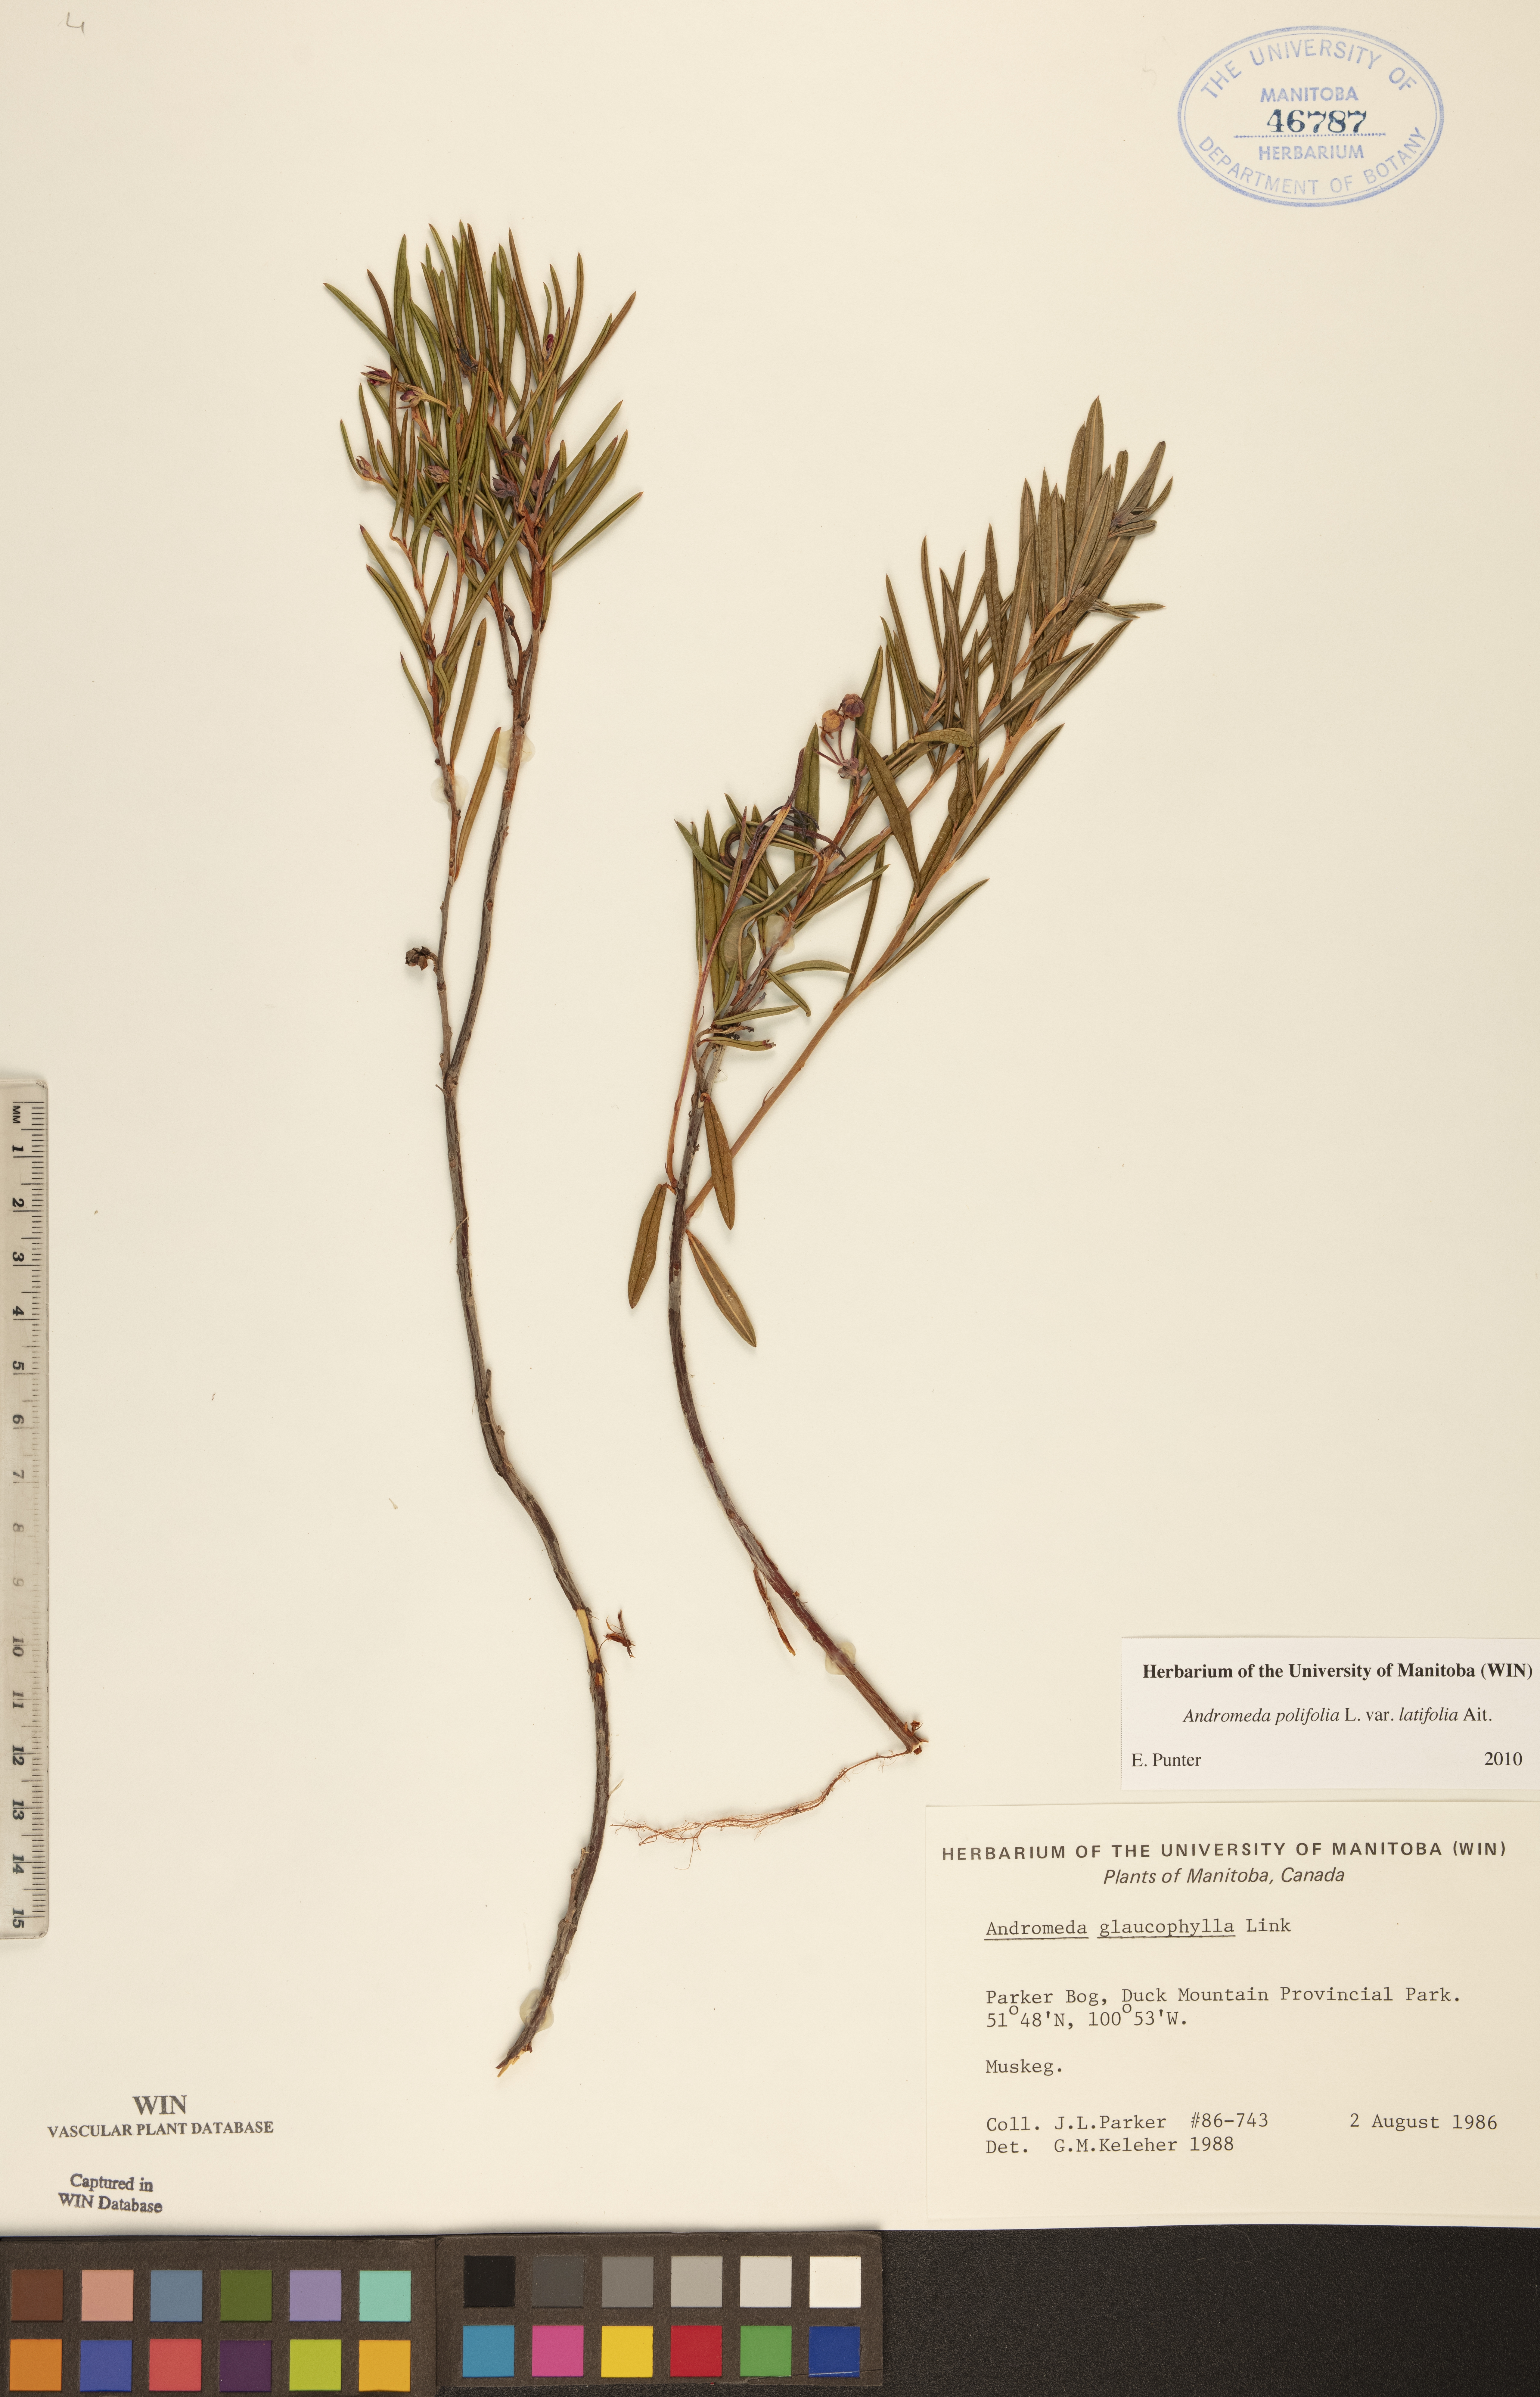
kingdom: Plantae
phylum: Tracheophyta
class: Magnoliopsida
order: Ericales
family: Ericaceae
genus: Andromeda
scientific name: Andromeda polifolia
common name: Bog-rosemary
